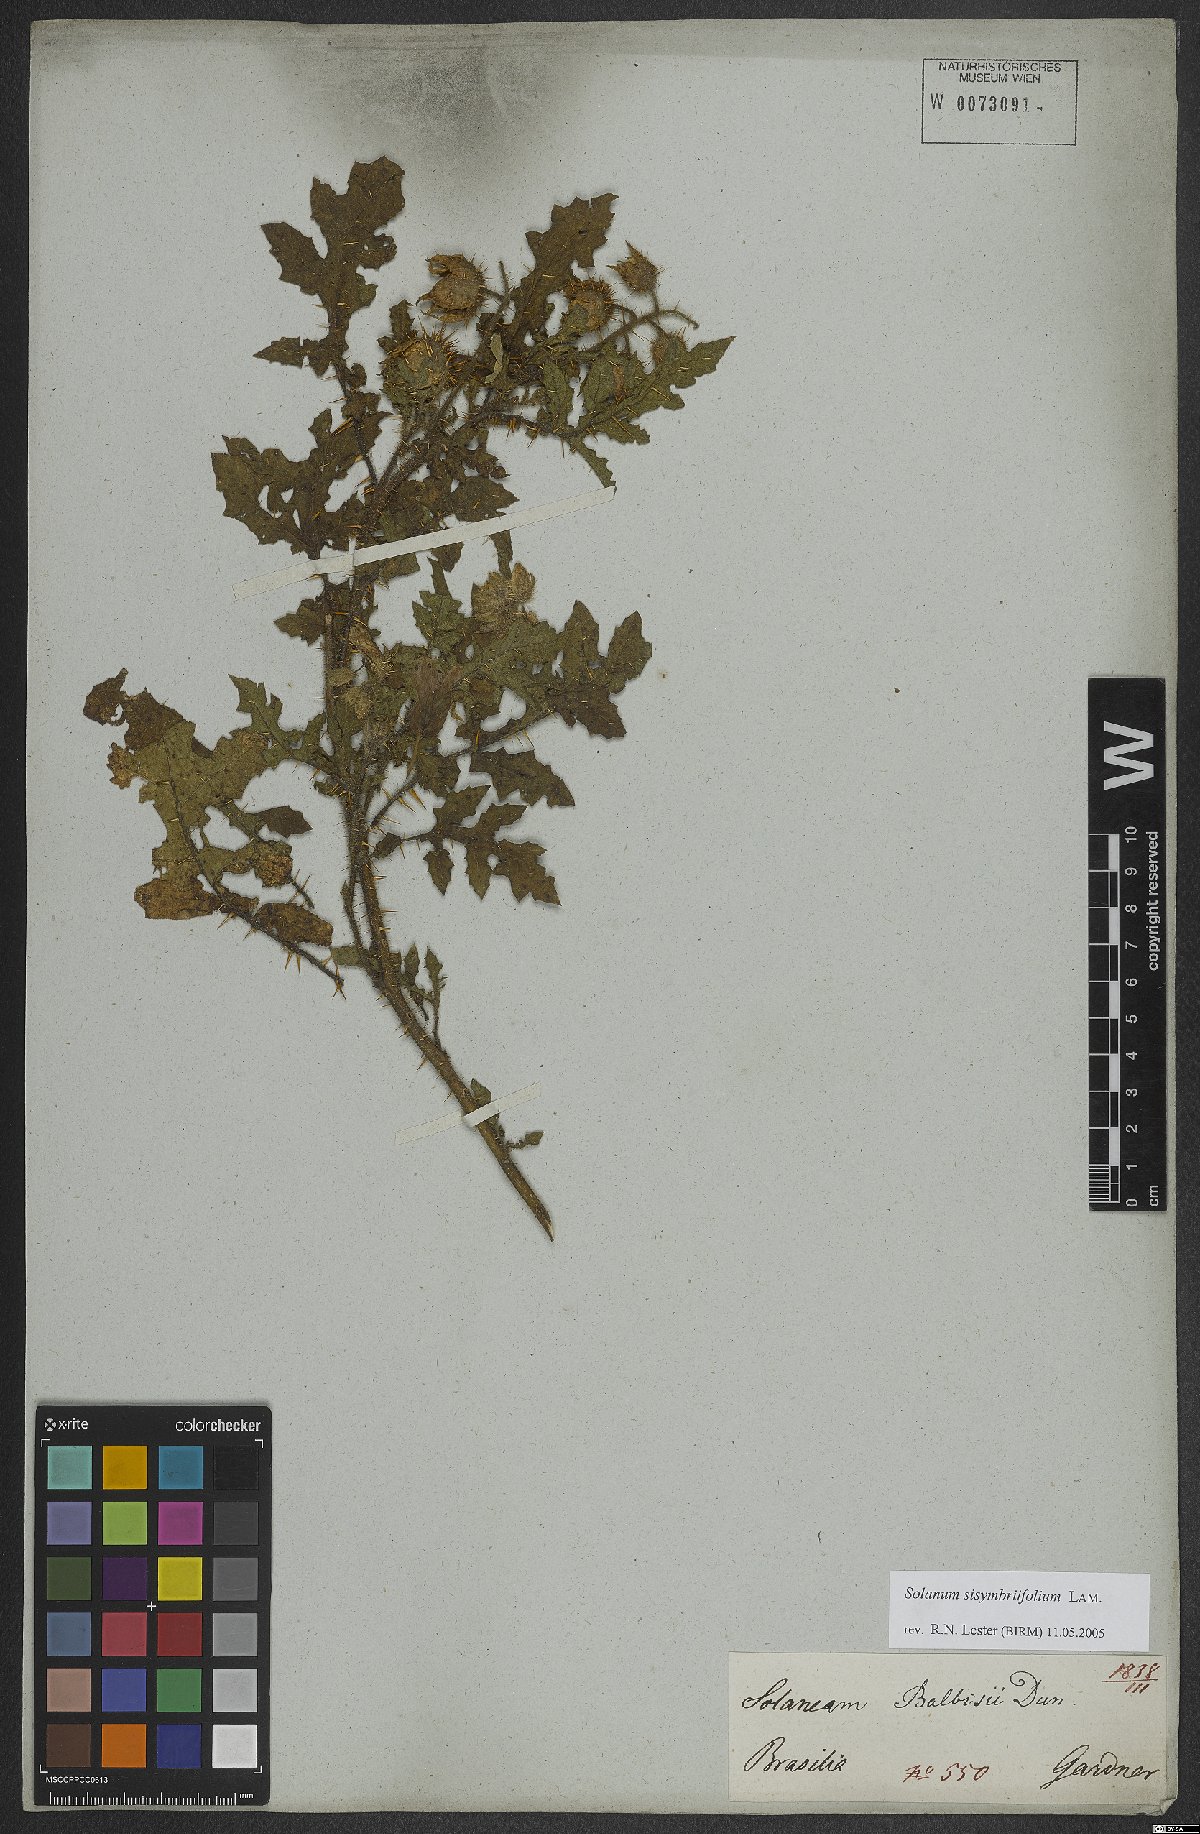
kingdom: Plantae
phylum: Tracheophyta
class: Magnoliopsida
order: Solanales
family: Solanaceae
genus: Solanum
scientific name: Solanum sisymbriifolium
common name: Red buffalo-bur
